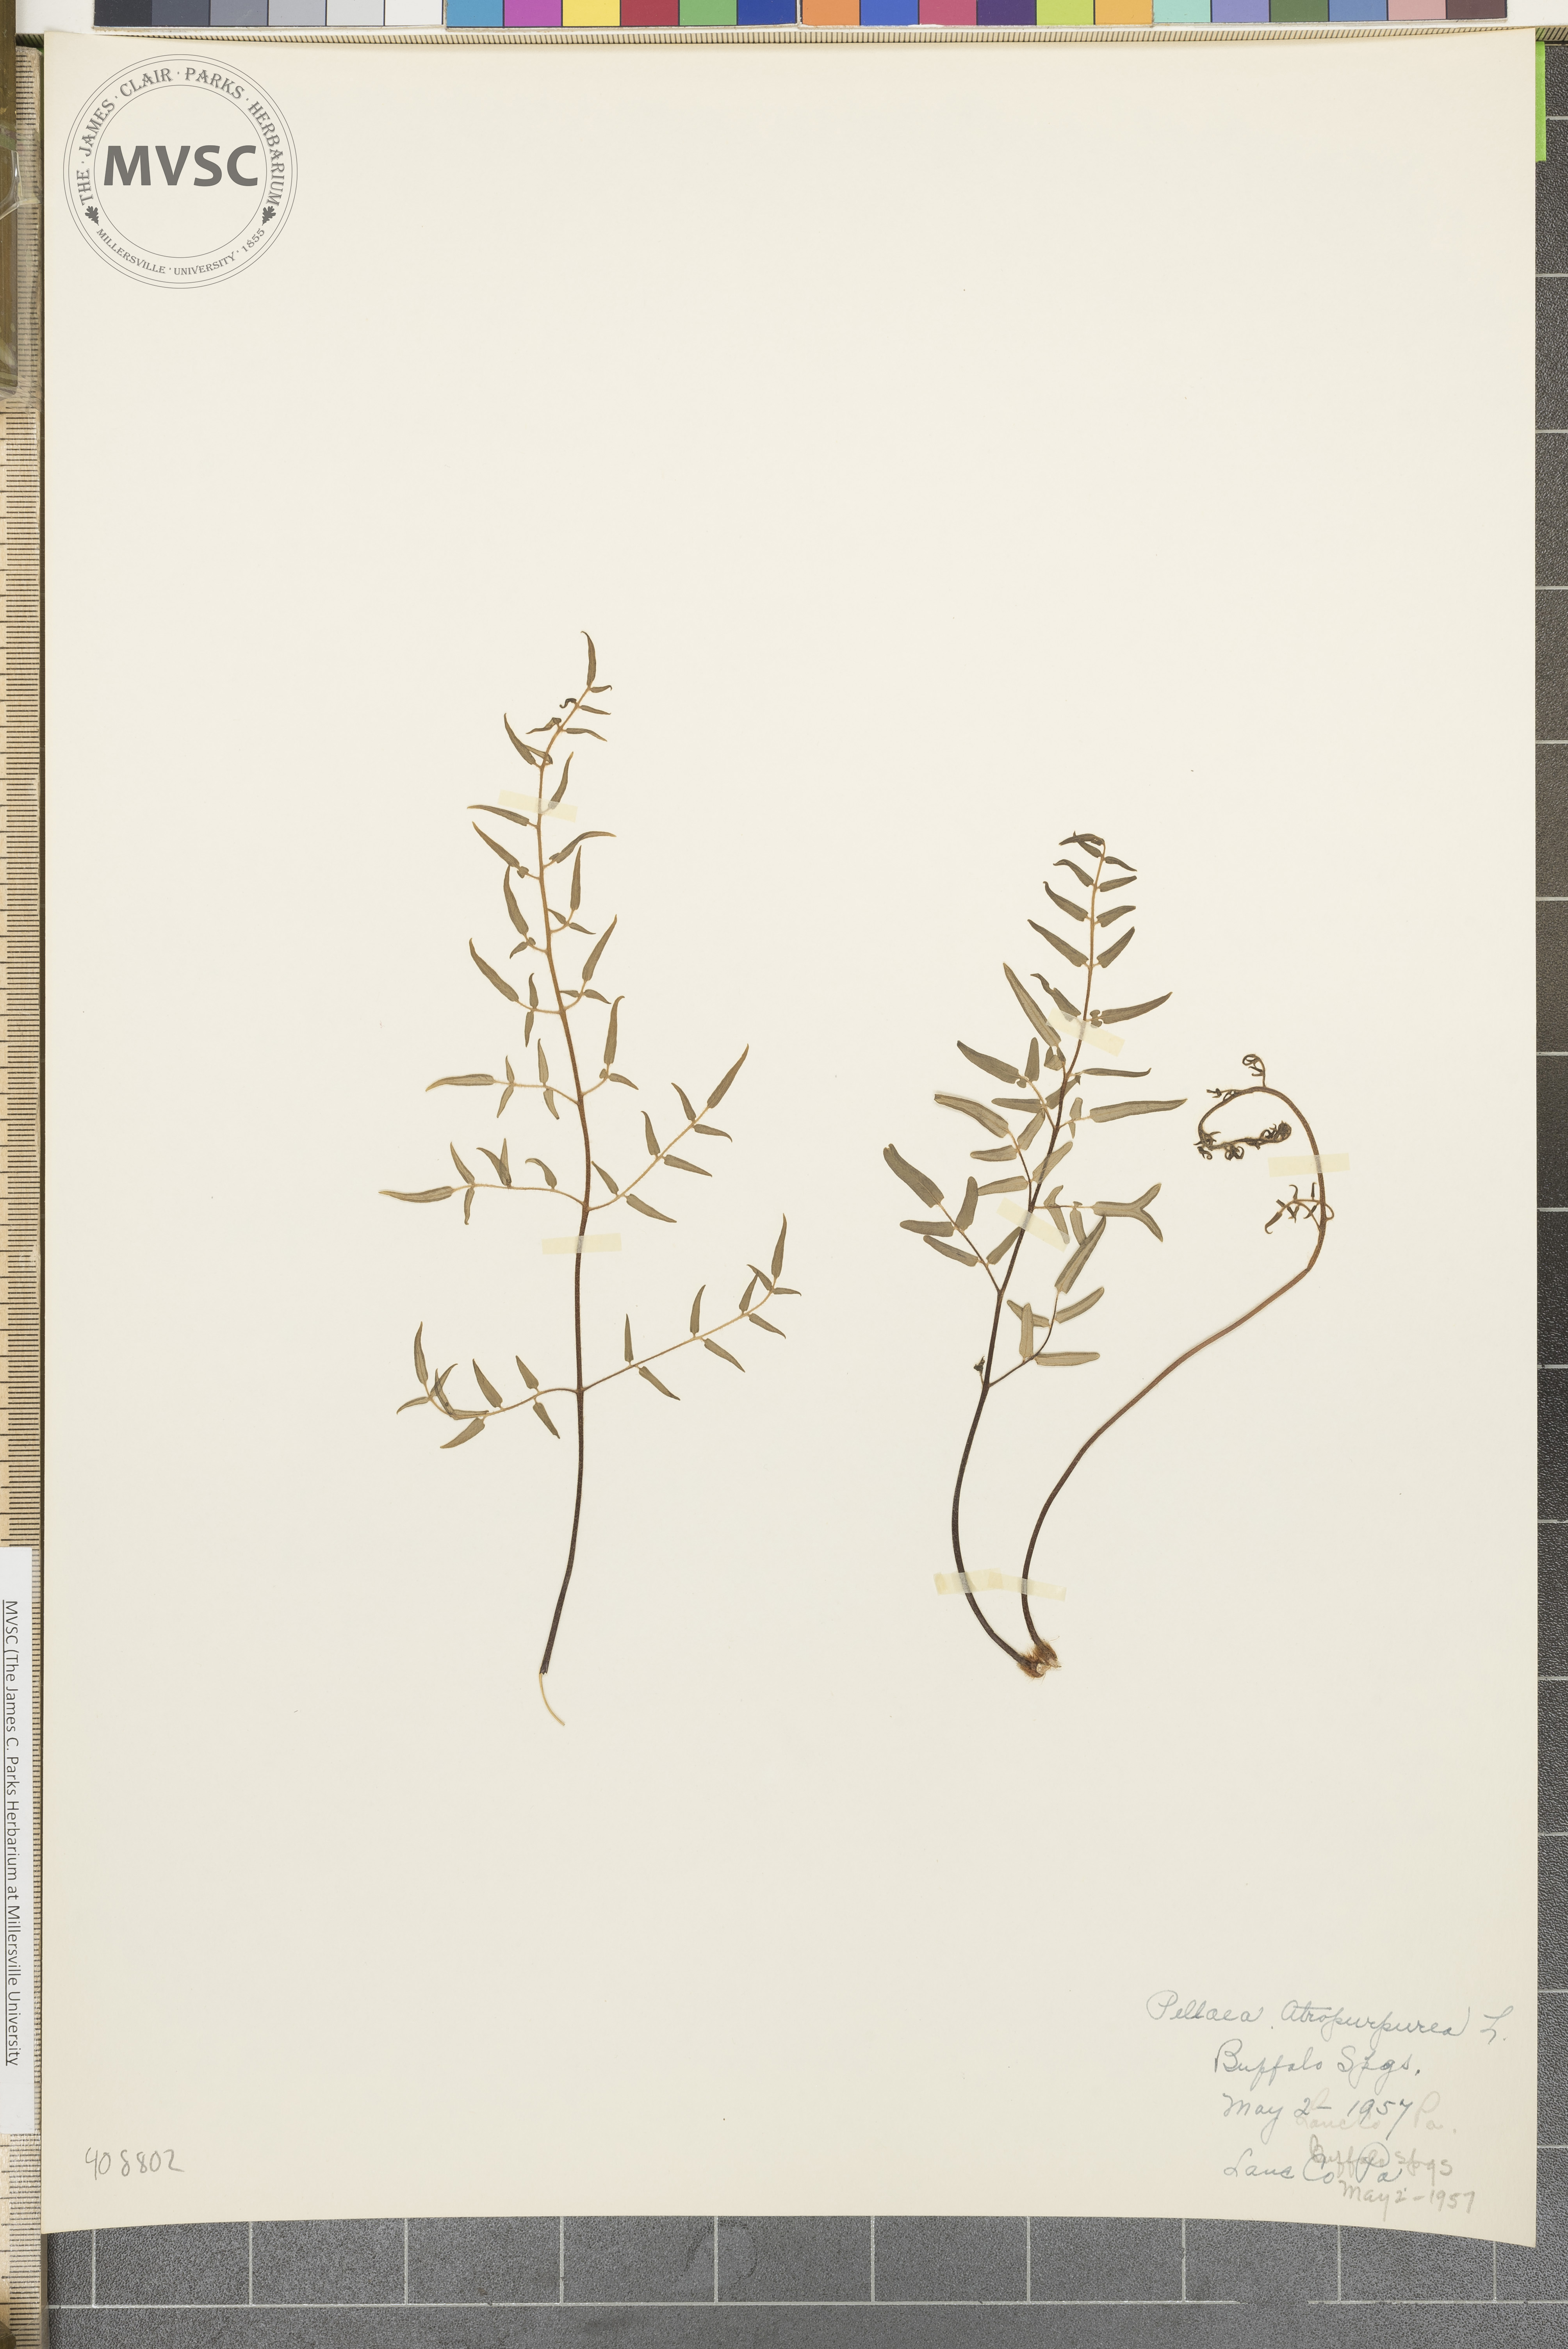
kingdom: Plantae
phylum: Tracheophyta
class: Polypodiopsida
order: Polypodiales
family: Pteridaceae
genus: Pellaea
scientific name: Pellaea atropurpurea
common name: Hairy cliffbrake
